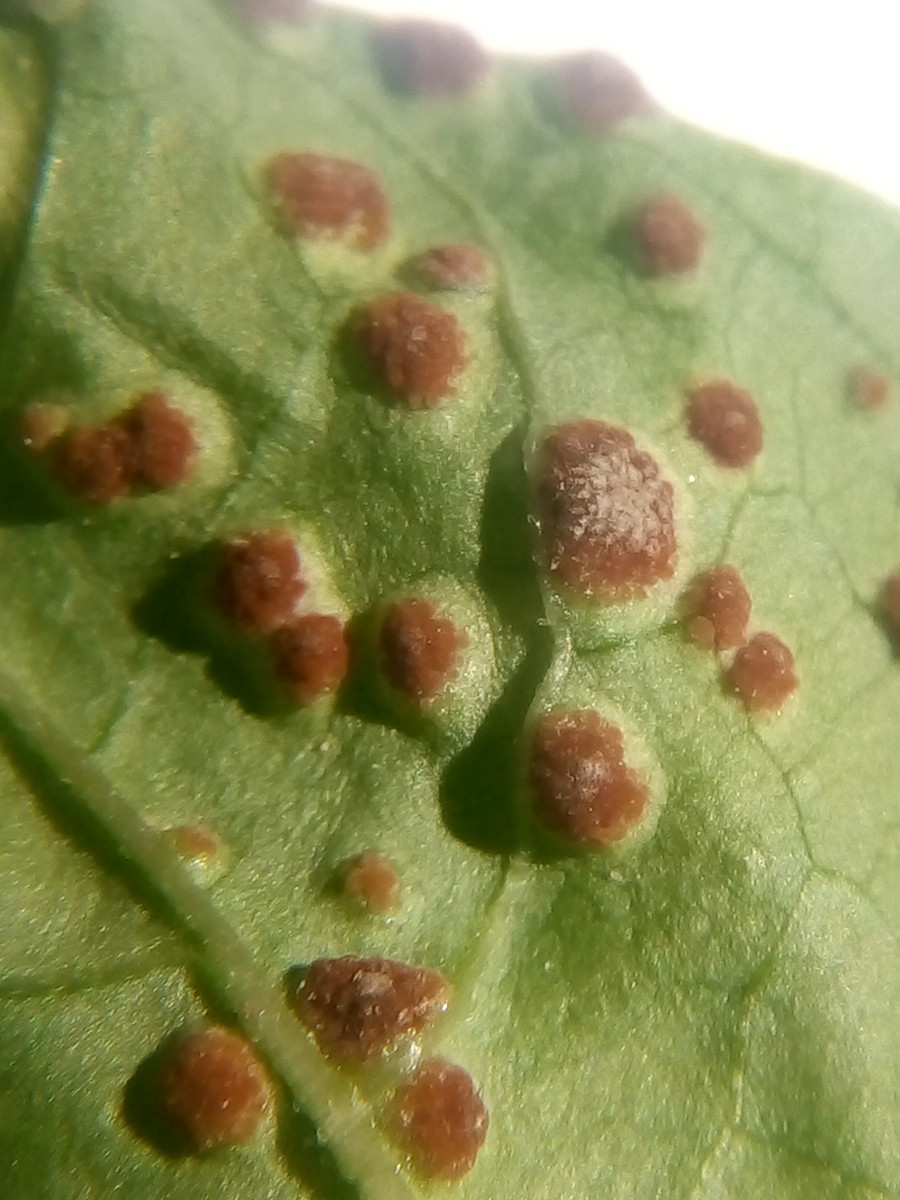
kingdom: Fungi
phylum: Basidiomycota
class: Pucciniomycetes
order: Pucciniales
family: Pucciniaceae
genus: Puccinia
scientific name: Puccinia circaeae
